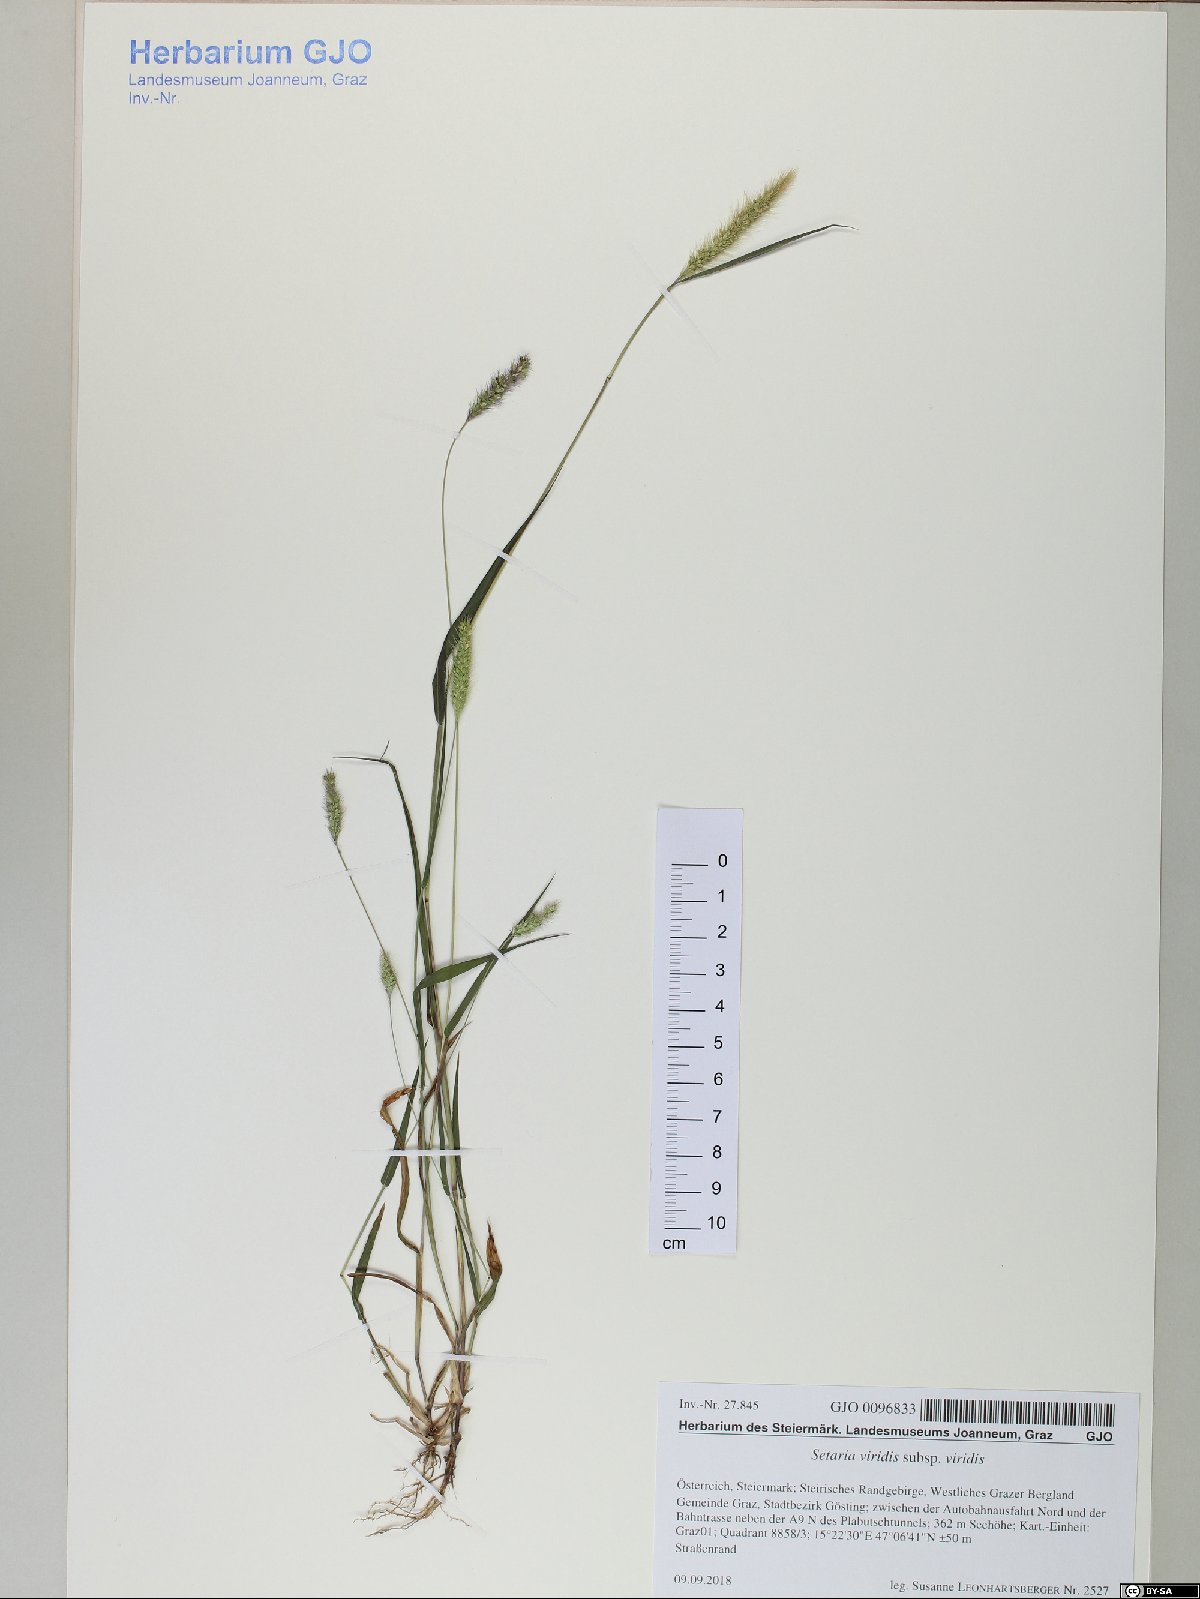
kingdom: Plantae
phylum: Tracheophyta
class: Liliopsida
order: Poales
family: Poaceae
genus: Setaria
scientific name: Setaria viridis
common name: Green bristlegrass
